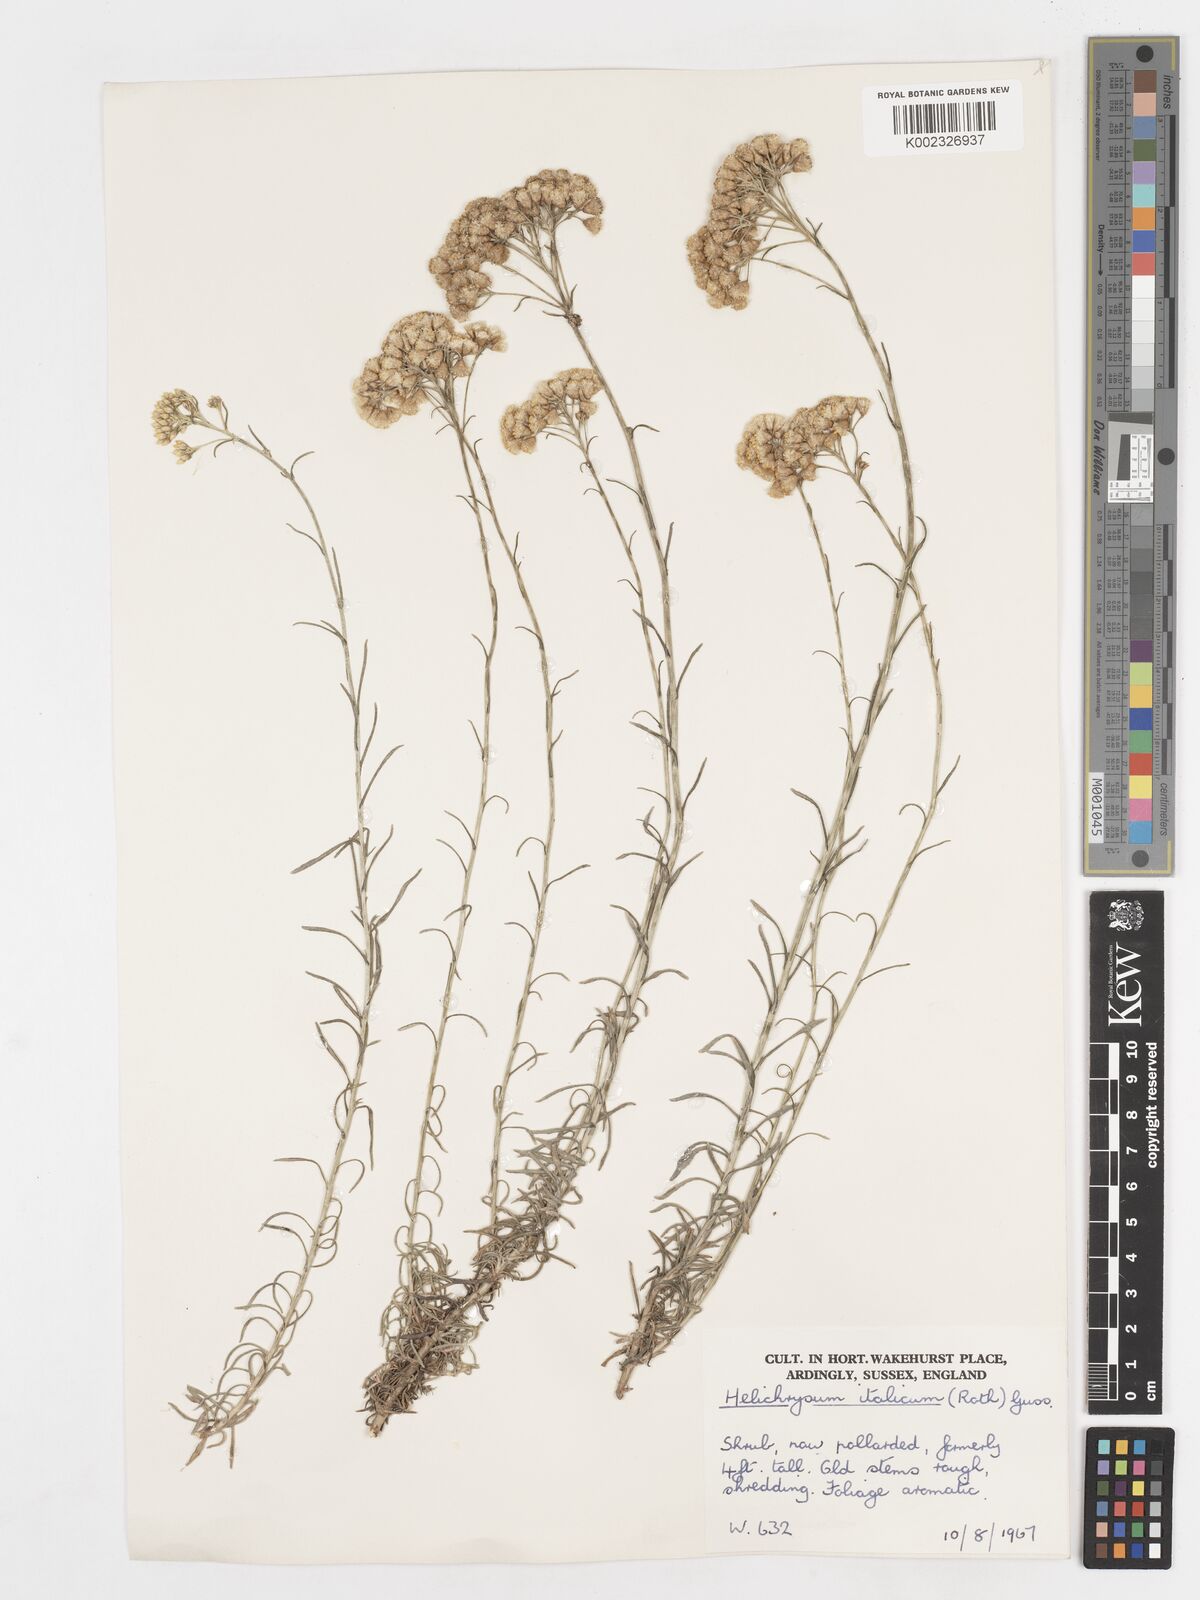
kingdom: Plantae
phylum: Tracheophyta
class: Magnoliopsida
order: Asterales
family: Asteraceae
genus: Helichrysum
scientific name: Helichrysum italicum
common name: Curryplant
